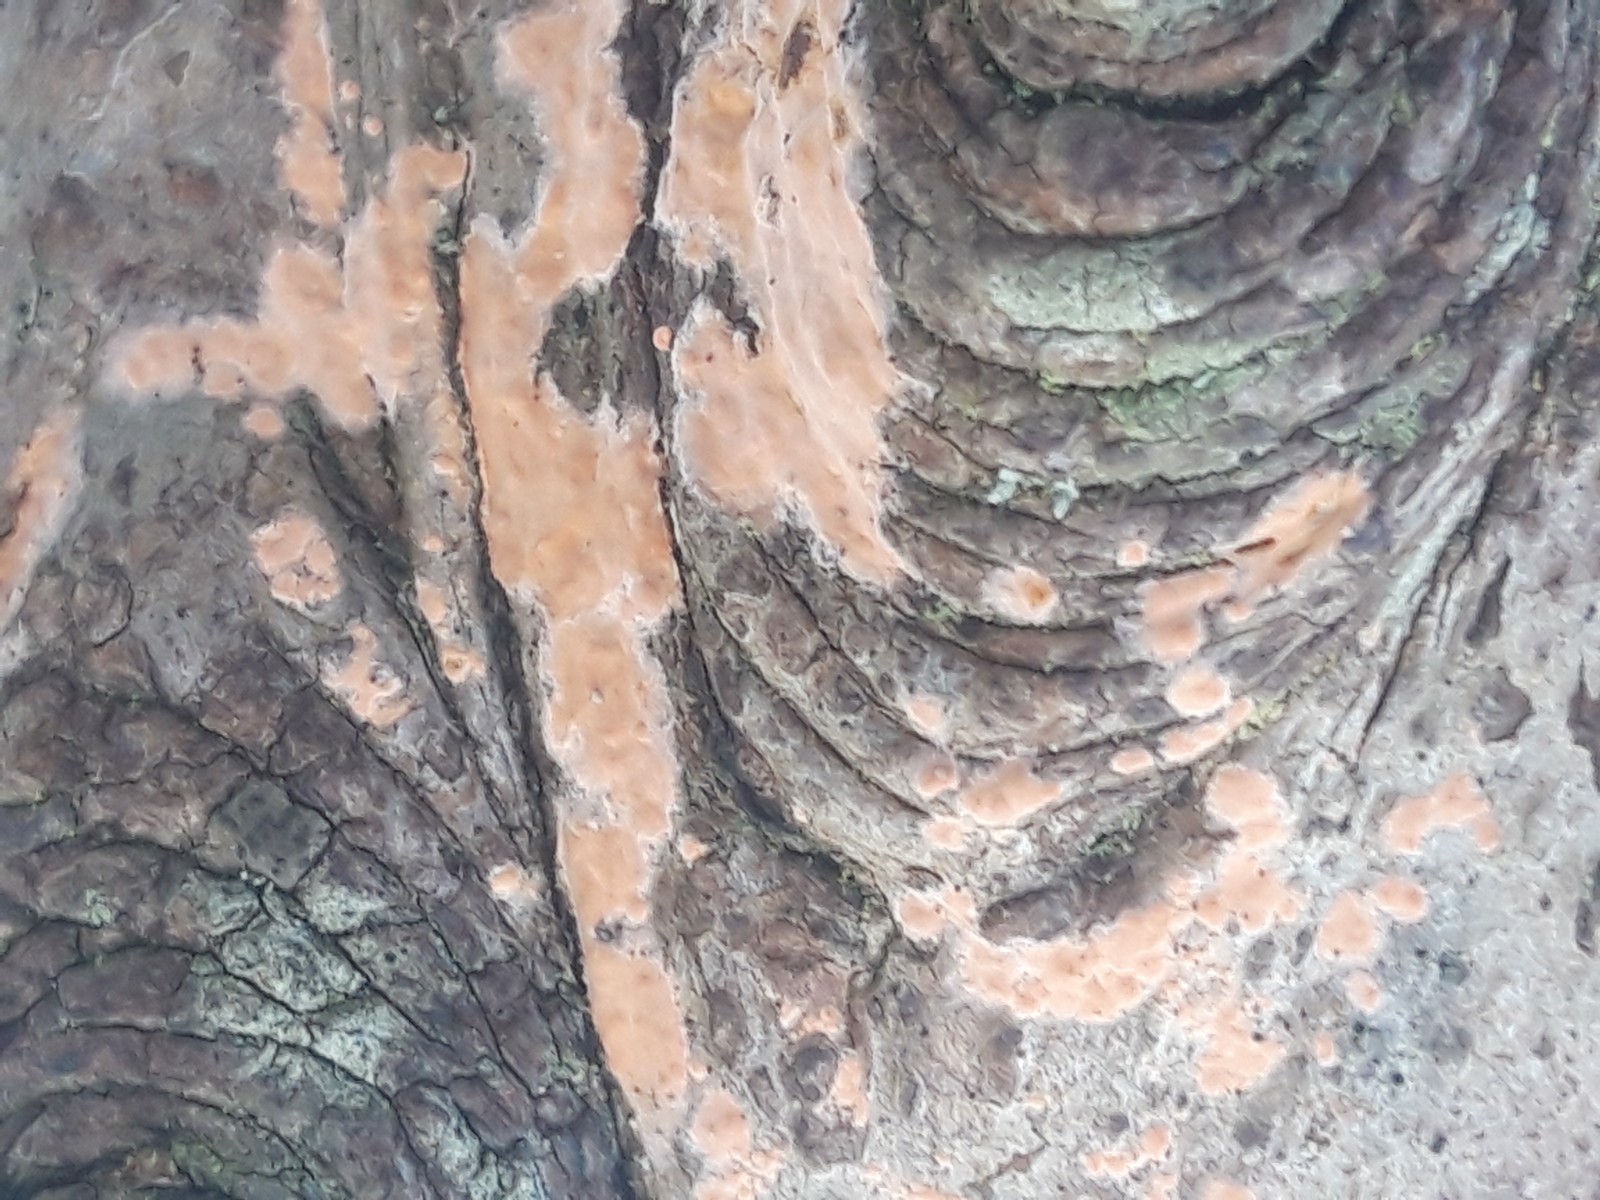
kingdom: Fungi
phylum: Basidiomycota
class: Agaricomycetes
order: Russulales
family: Peniophoraceae
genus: Peniophora
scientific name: Peniophora incarnata
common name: laksefarvet voksskind
